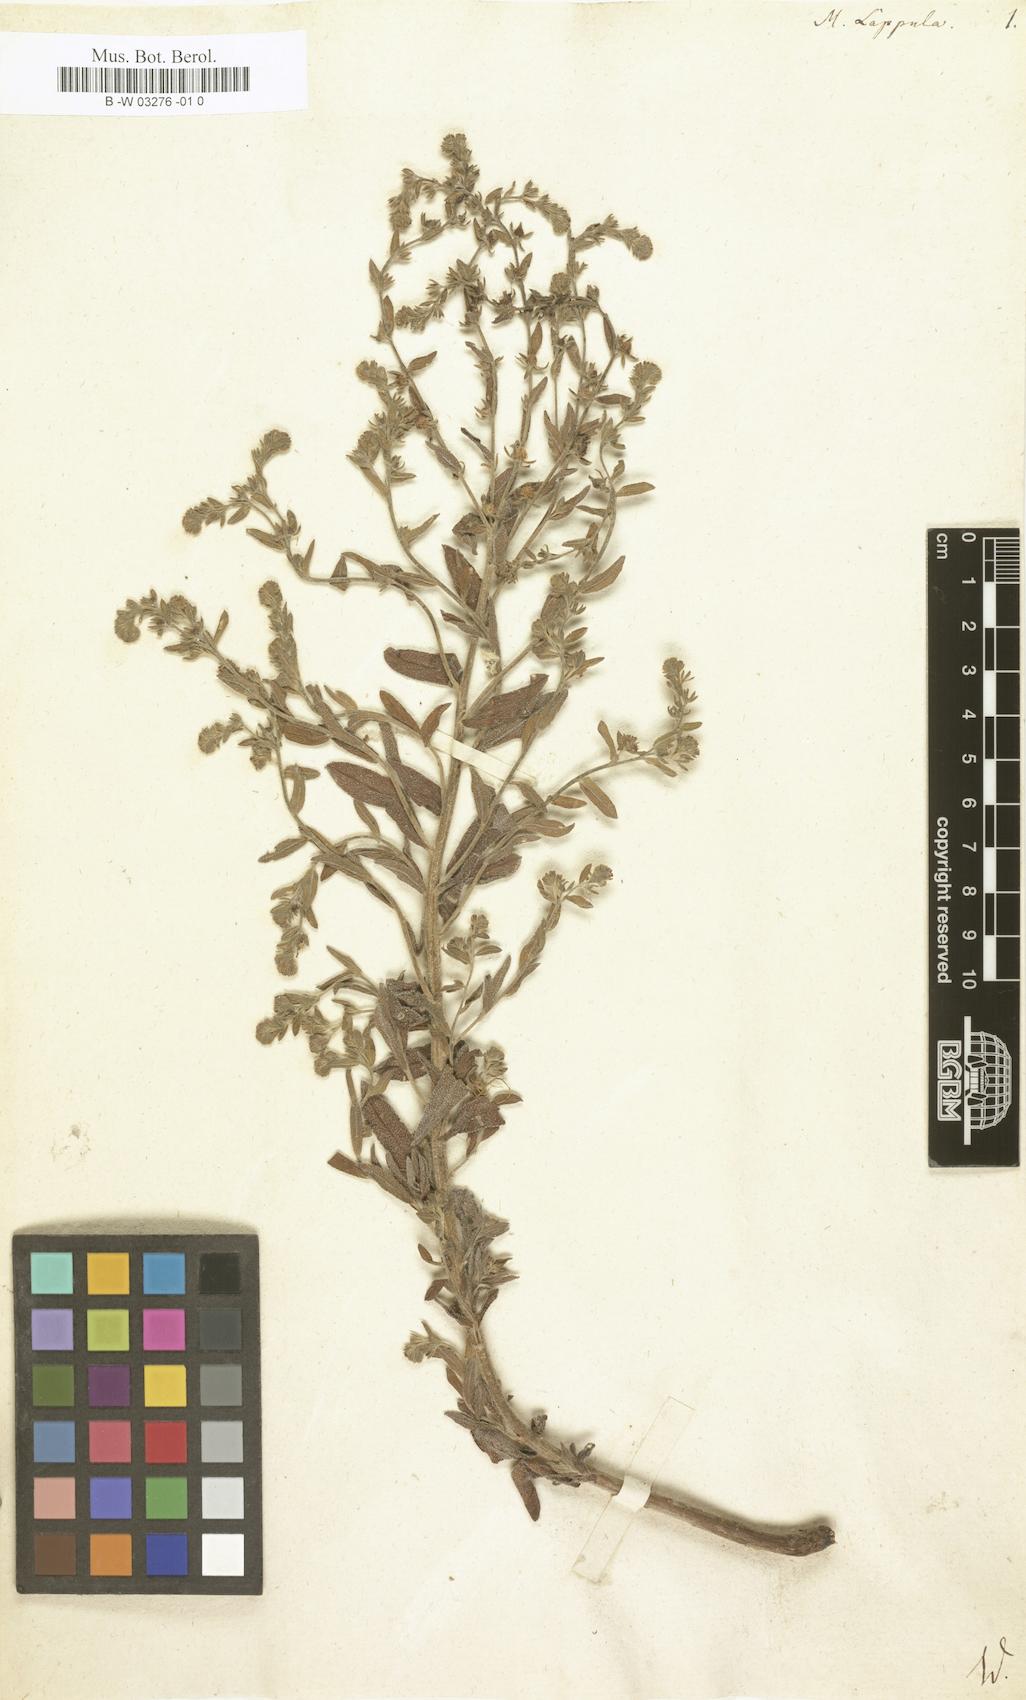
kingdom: Plantae
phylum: Tracheophyta
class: Magnoliopsida
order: Boraginales
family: Boraginaceae
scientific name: Boraginaceae
